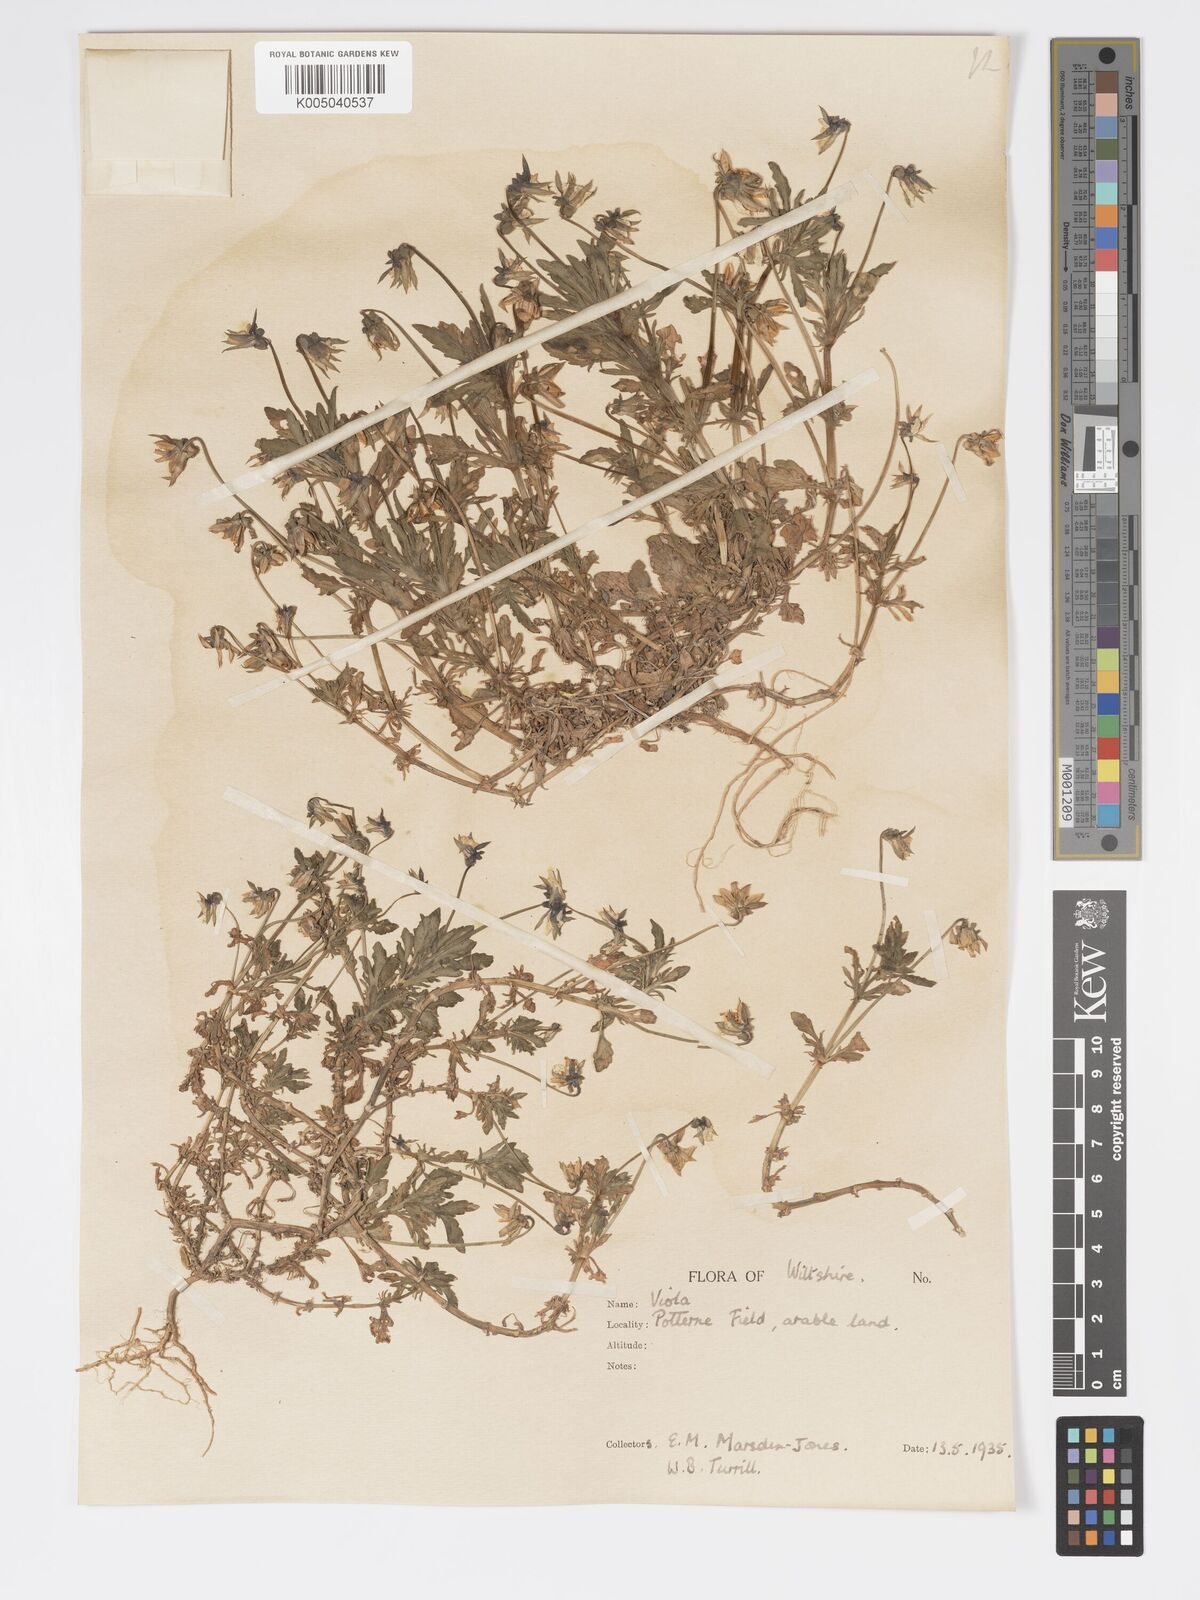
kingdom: Plantae
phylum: Tracheophyta
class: Magnoliopsida
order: Malpighiales
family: Violaceae
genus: Viola
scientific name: Viola
